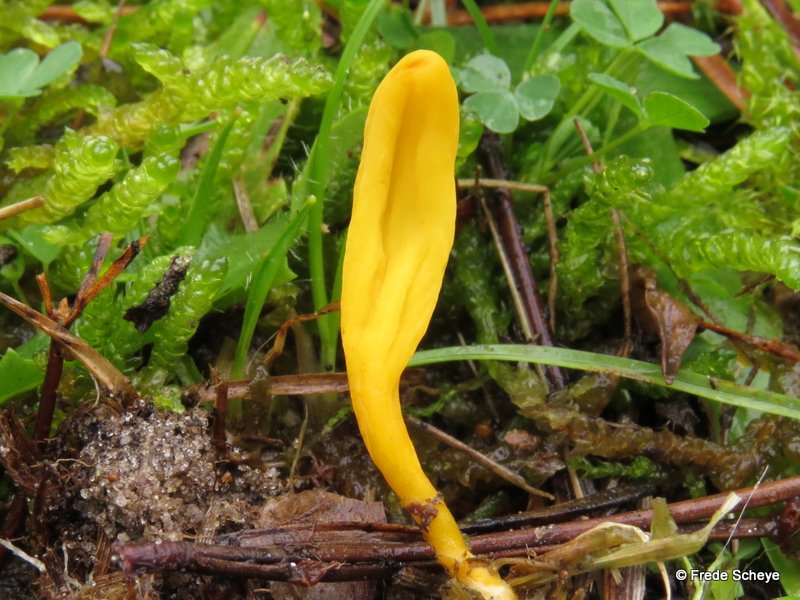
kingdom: Fungi
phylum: Basidiomycota
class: Agaricomycetes
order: Agaricales
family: Clavariaceae
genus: Clavulinopsis
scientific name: Clavulinopsis laeticolor
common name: flamme-køllesvamp
